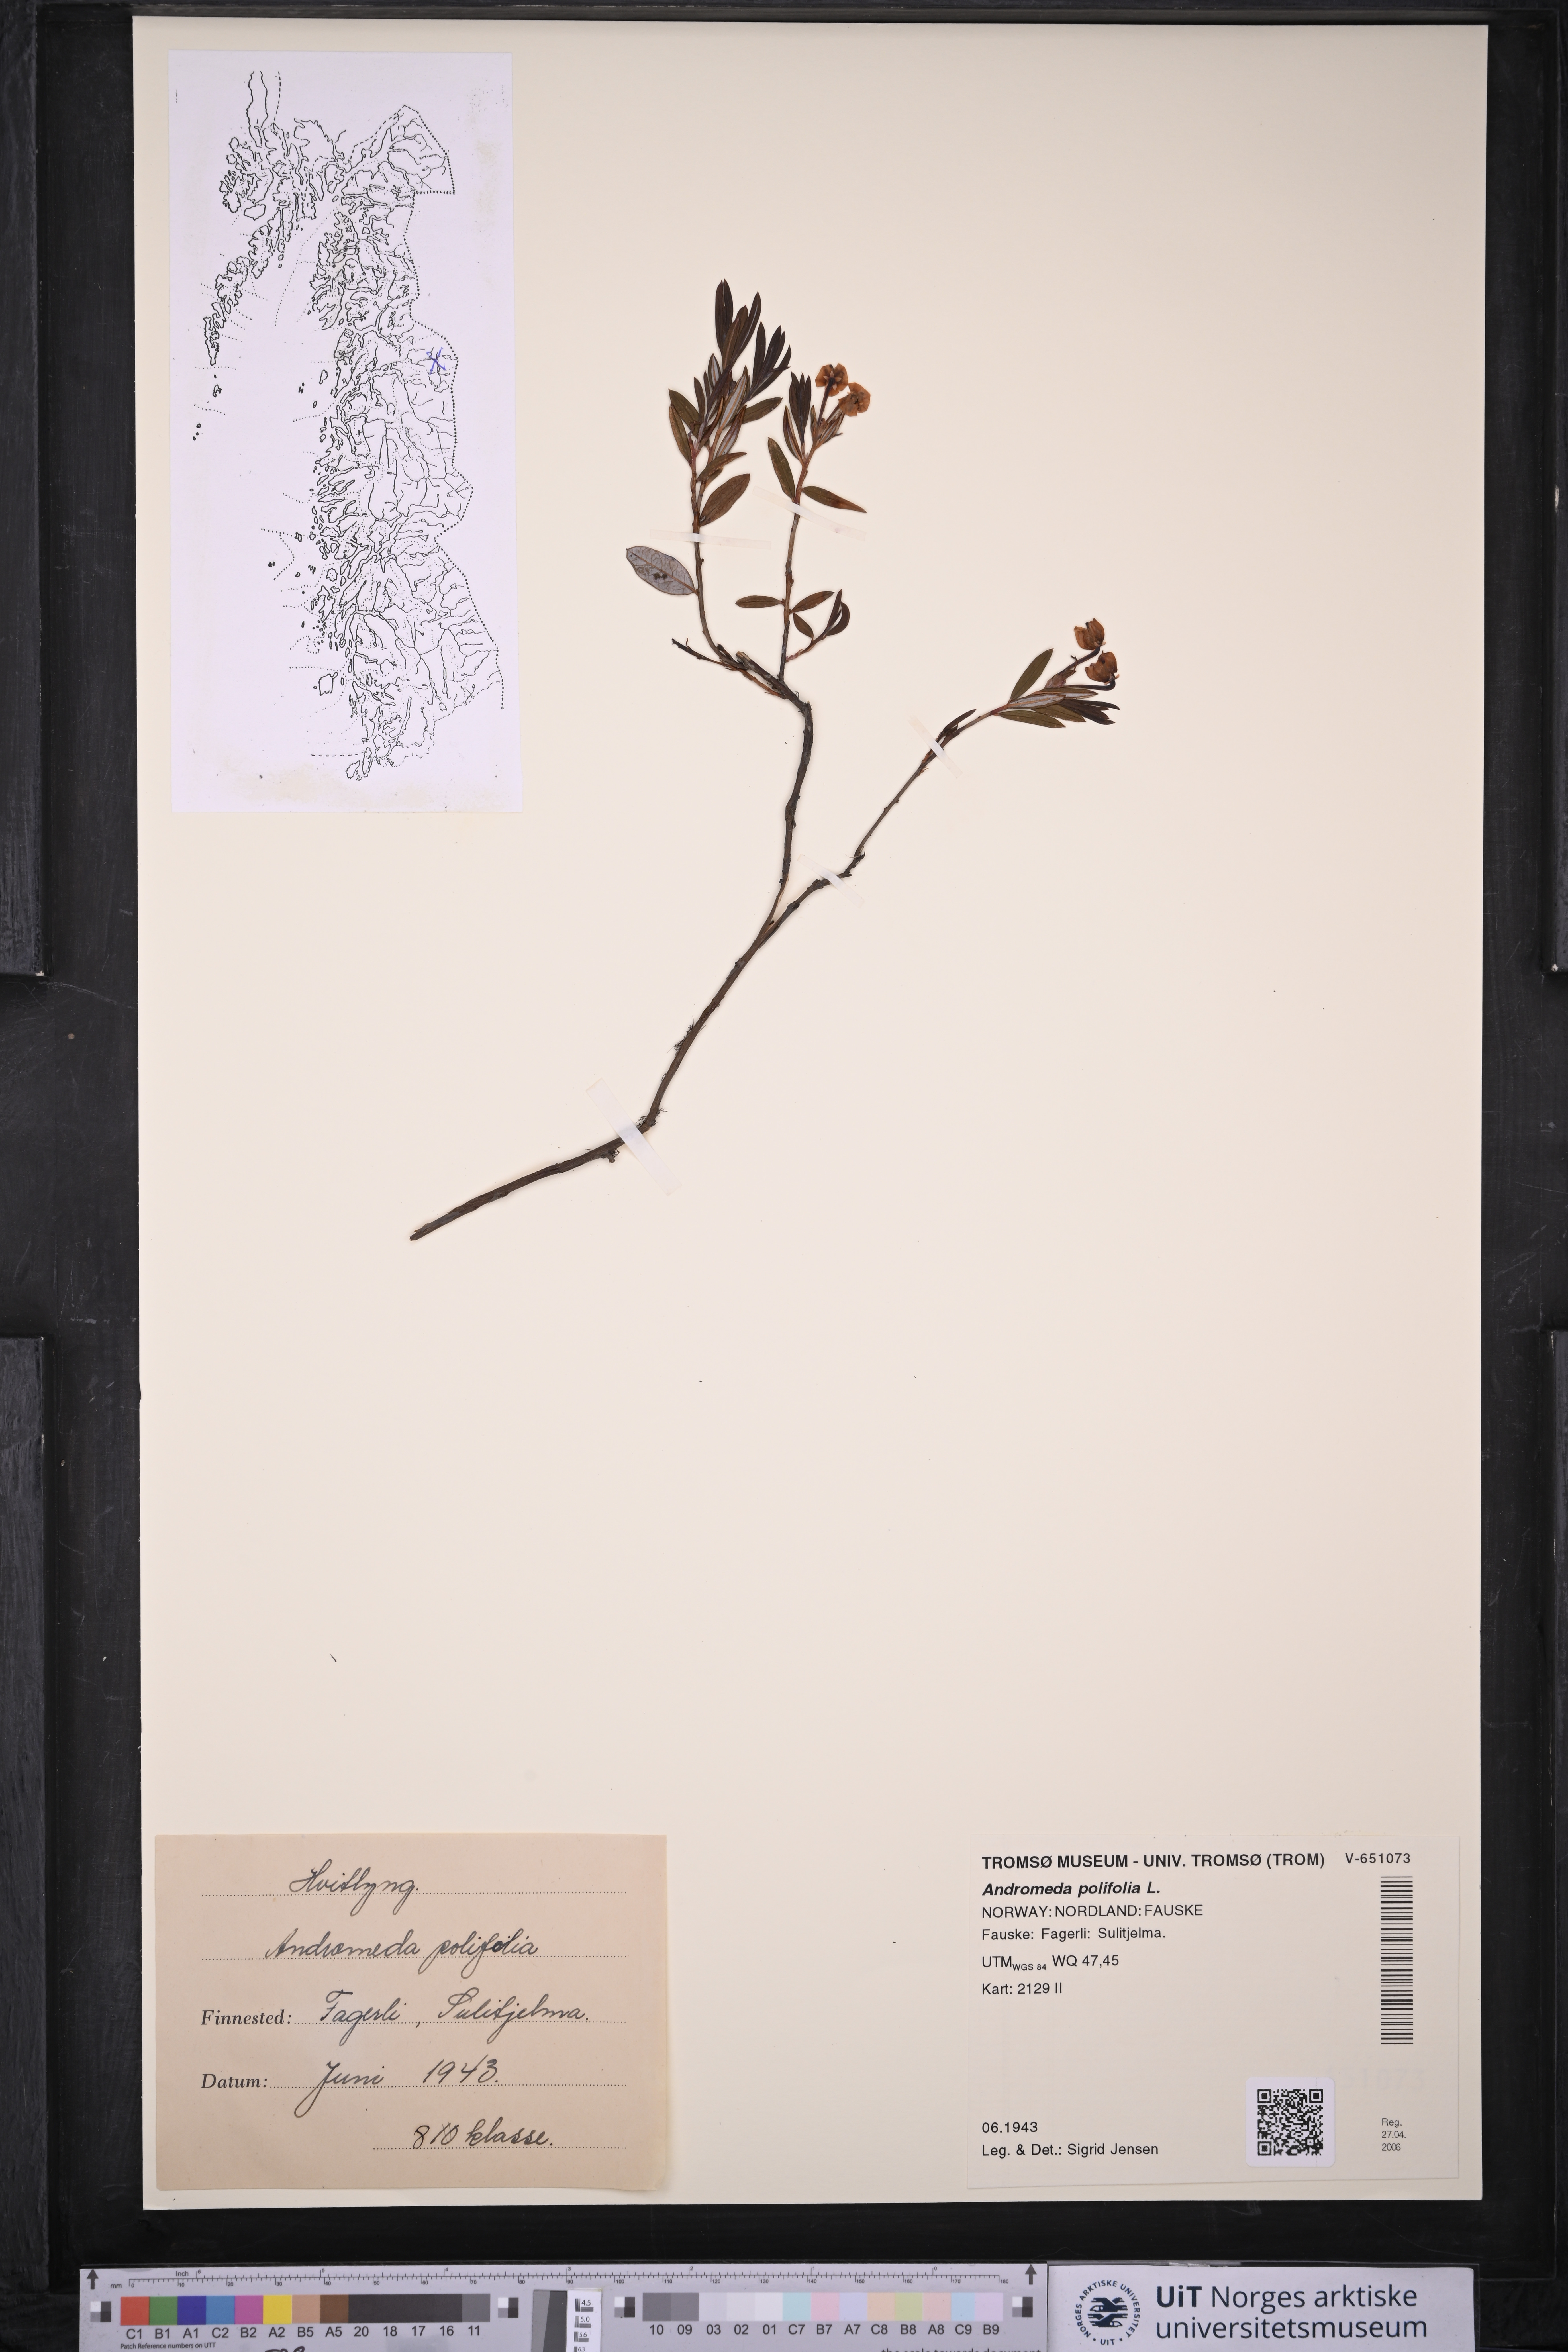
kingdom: Plantae
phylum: Tracheophyta
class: Magnoliopsida
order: Ericales
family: Ericaceae
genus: Andromeda
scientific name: Andromeda polifolia
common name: Bog-rosemary
